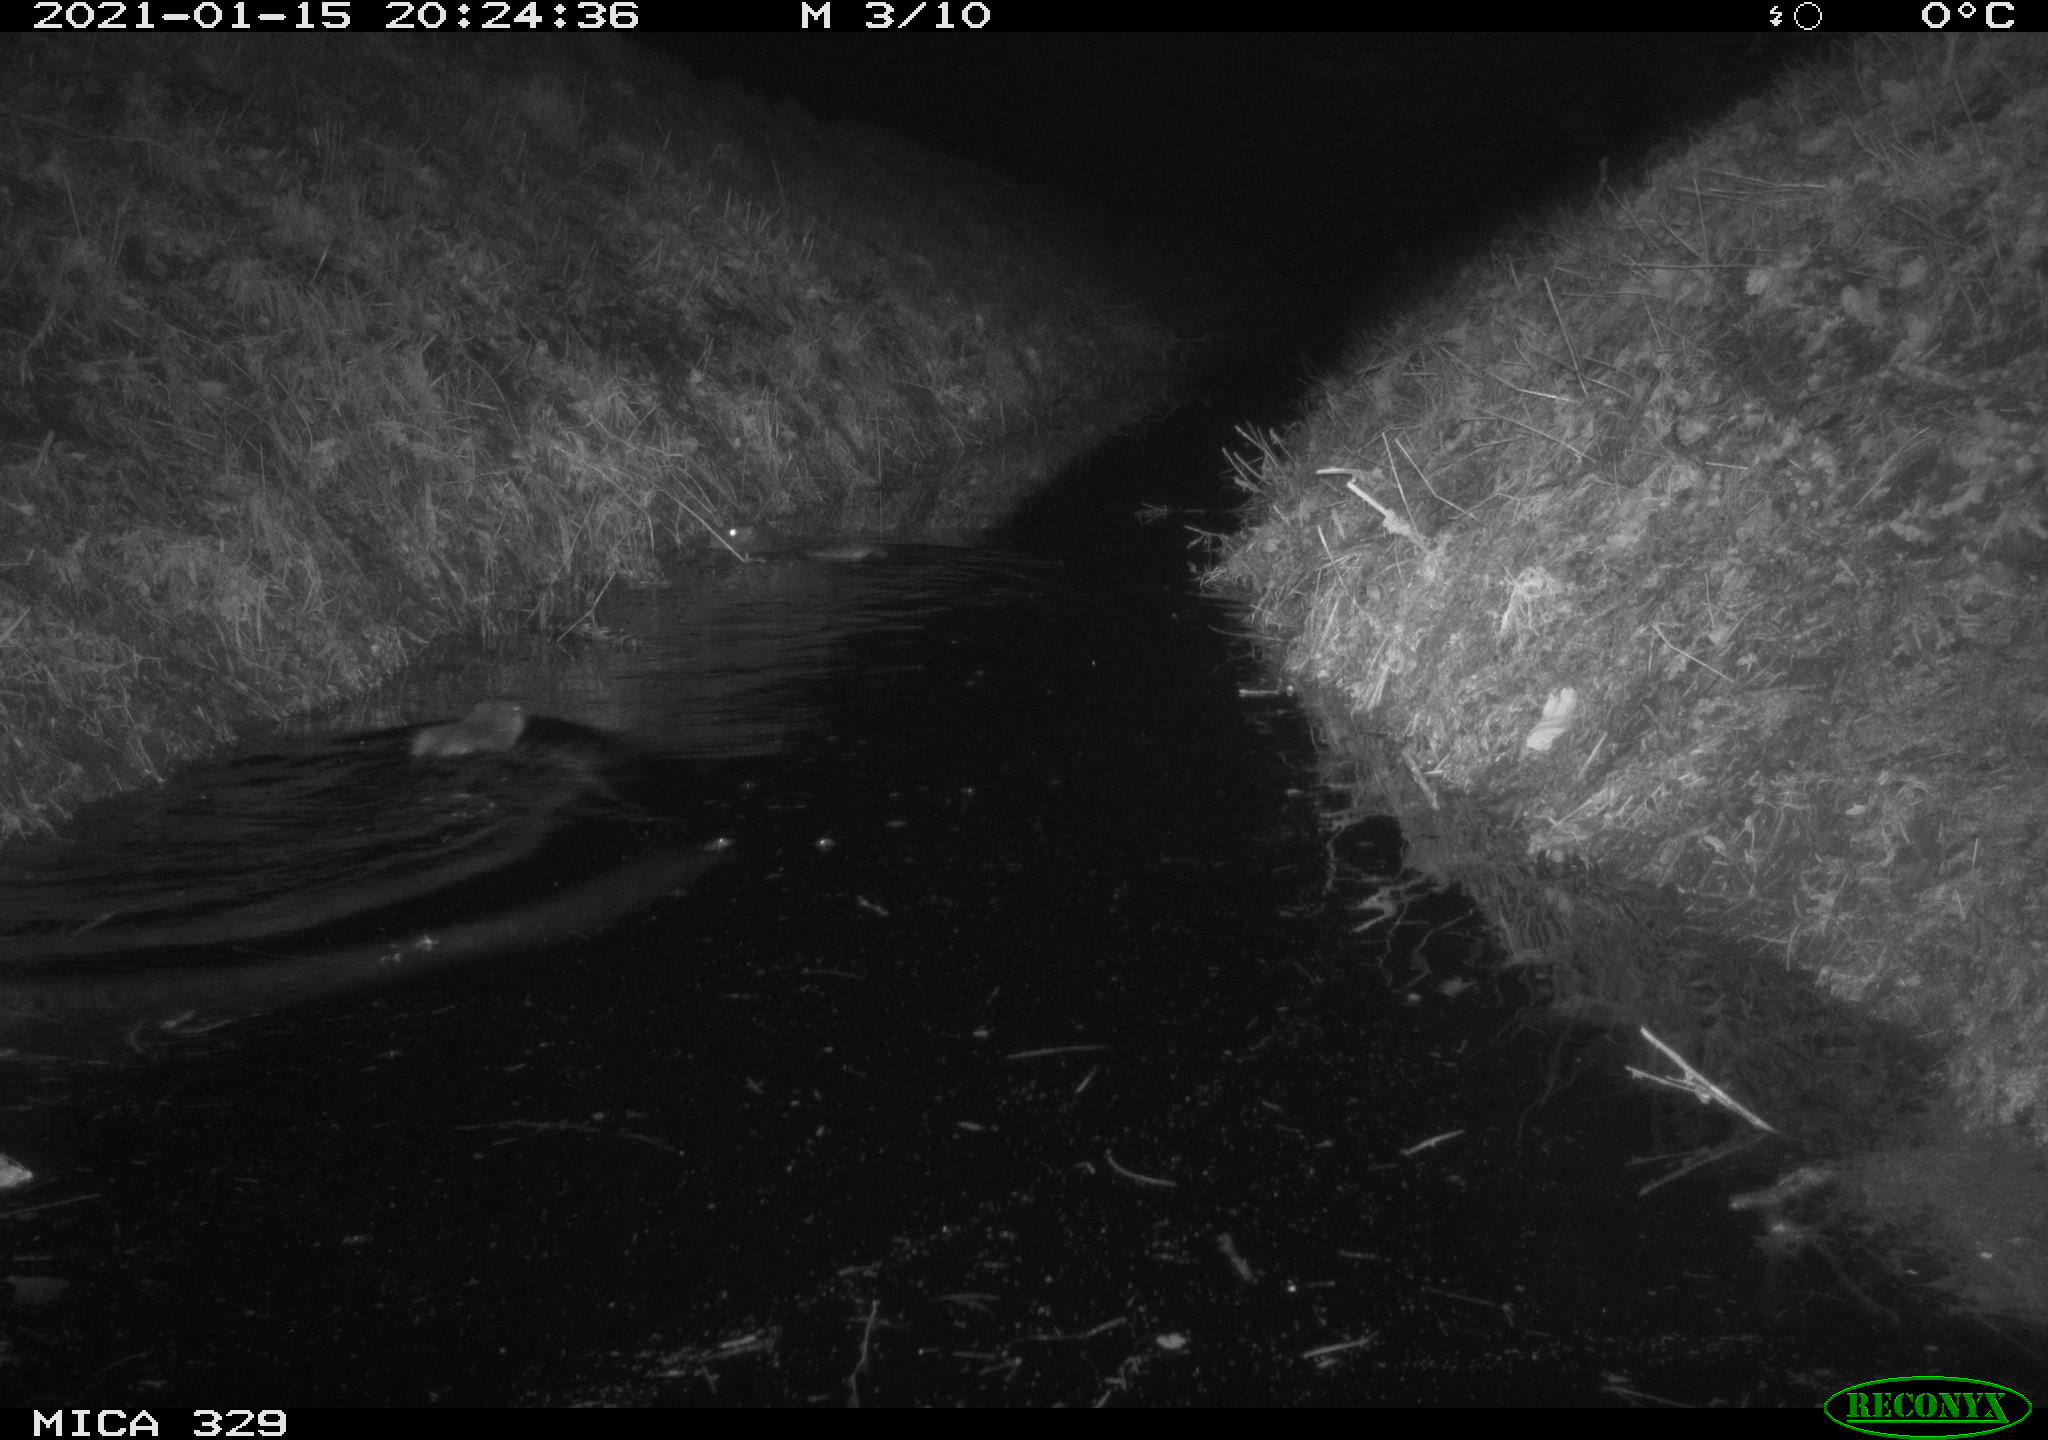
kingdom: Animalia
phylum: Chordata
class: Mammalia
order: Rodentia
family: Myocastoridae
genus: Myocastor
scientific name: Myocastor coypus
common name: Coypu
